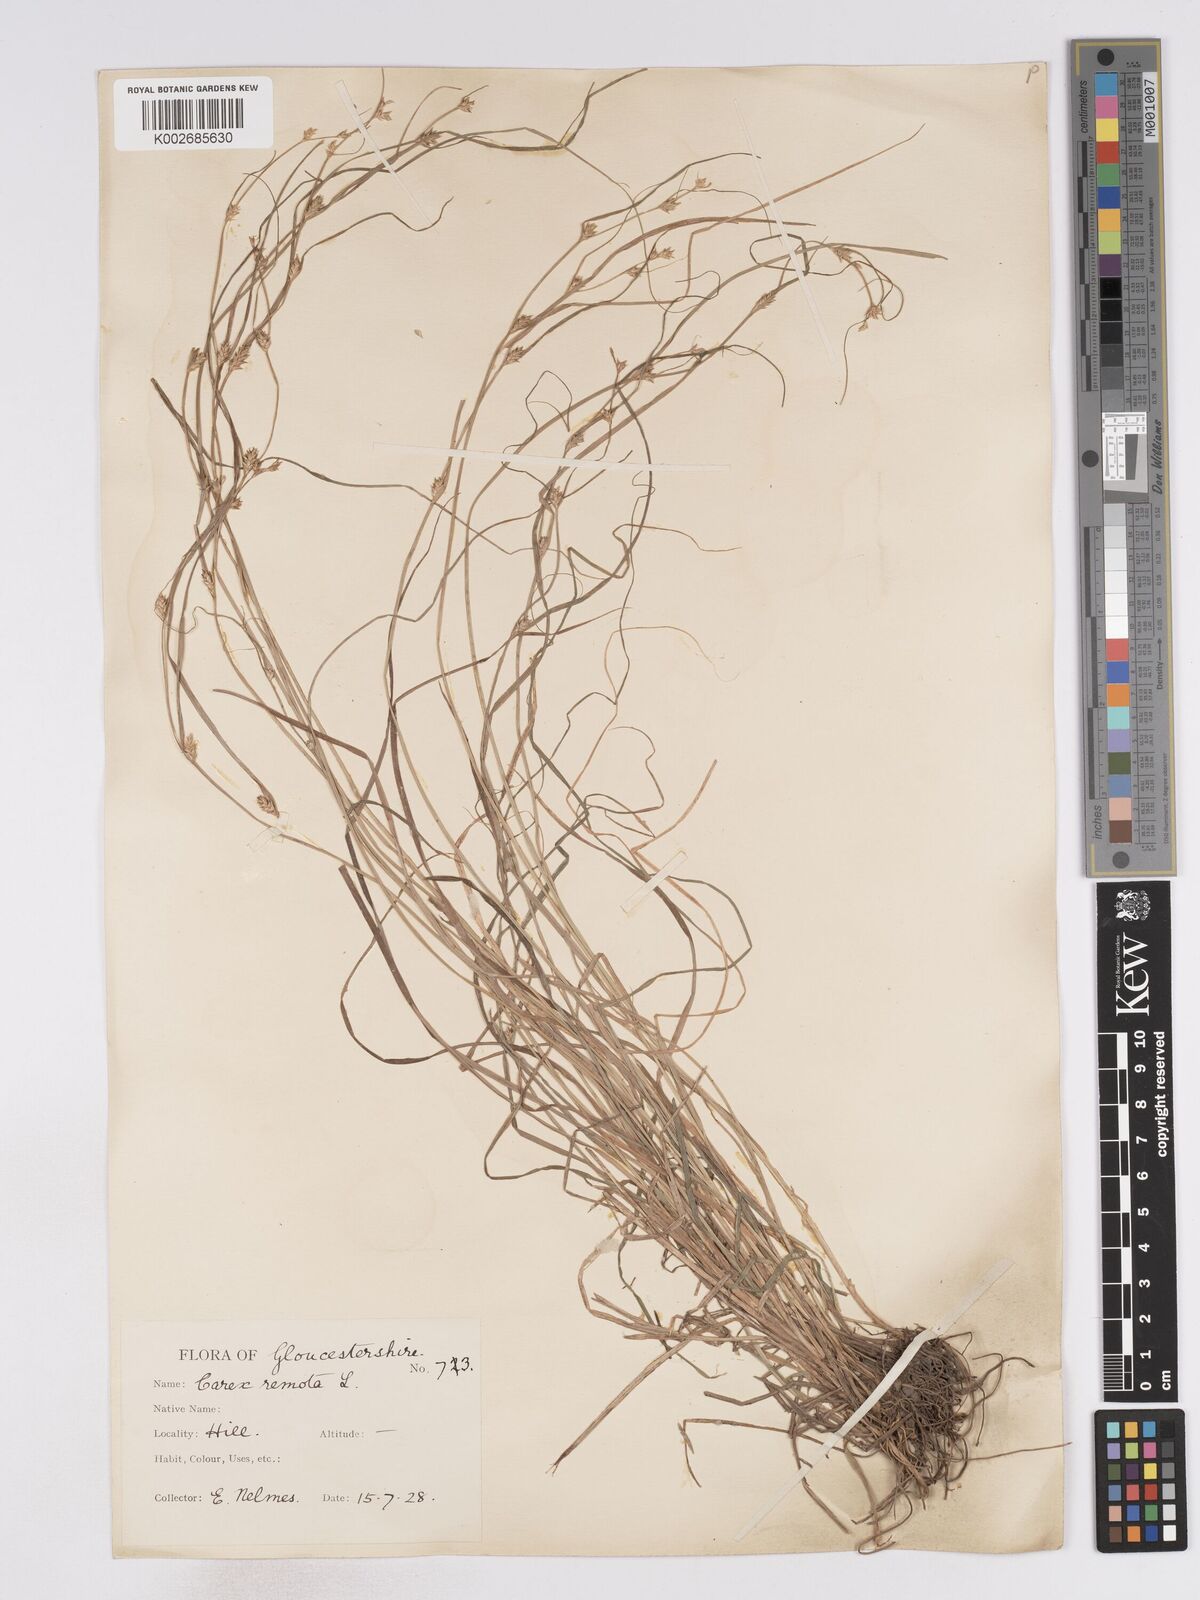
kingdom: Plantae
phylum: Tracheophyta
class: Liliopsida
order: Poales
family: Cyperaceae
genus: Carex
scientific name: Carex remota
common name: Remote sedge
